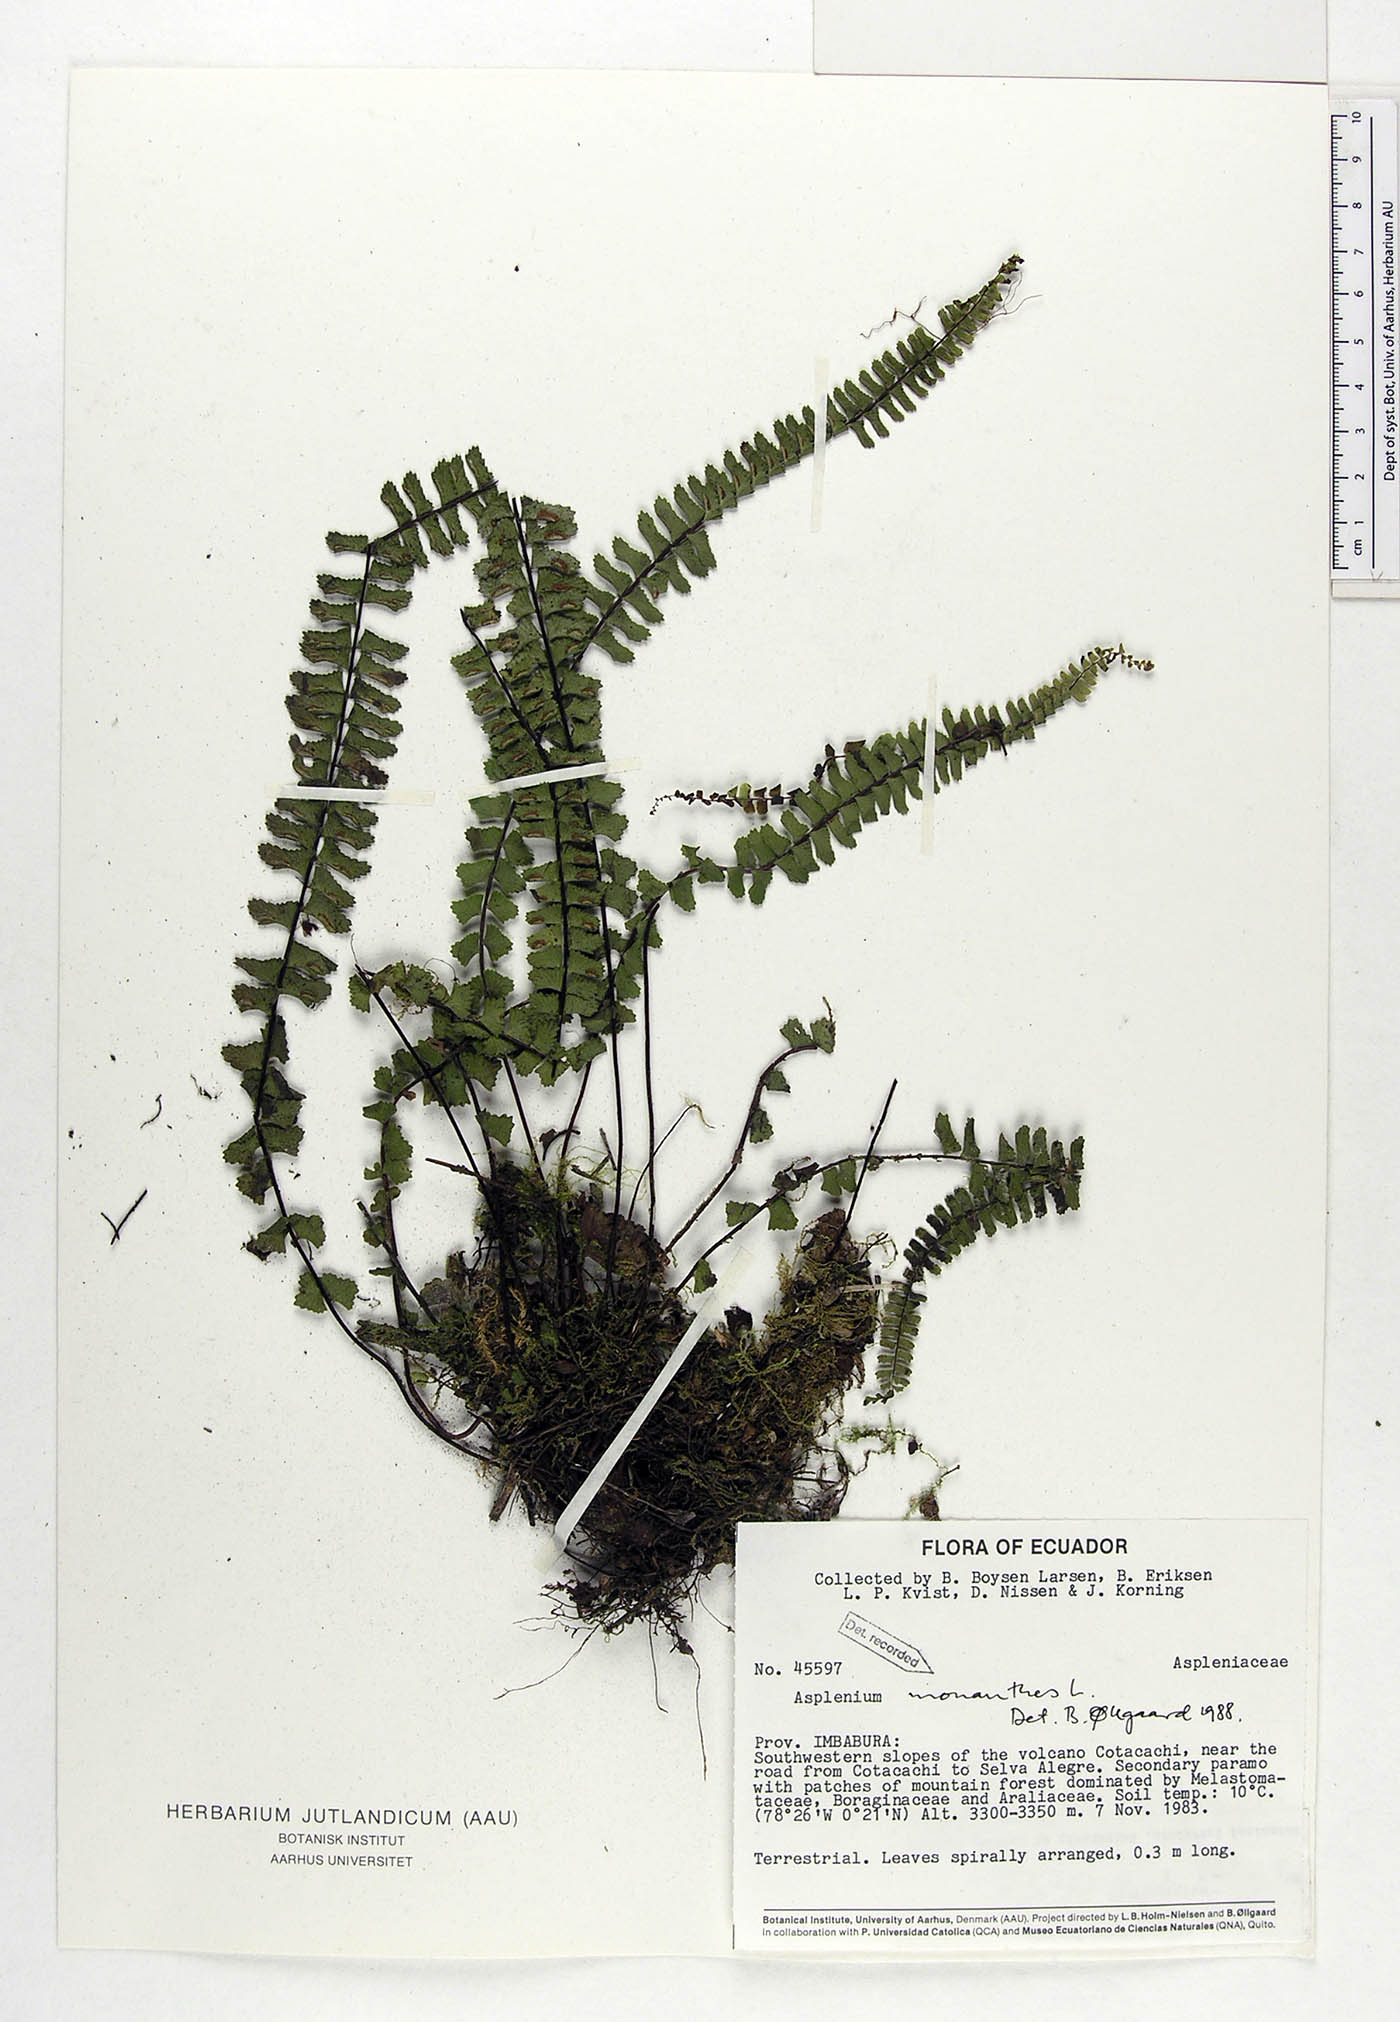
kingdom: Plantae
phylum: Tracheophyta
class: Polypodiopsida
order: Polypodiales
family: Aspleniaceae
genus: Asplenium
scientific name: Asplenium monanthes
